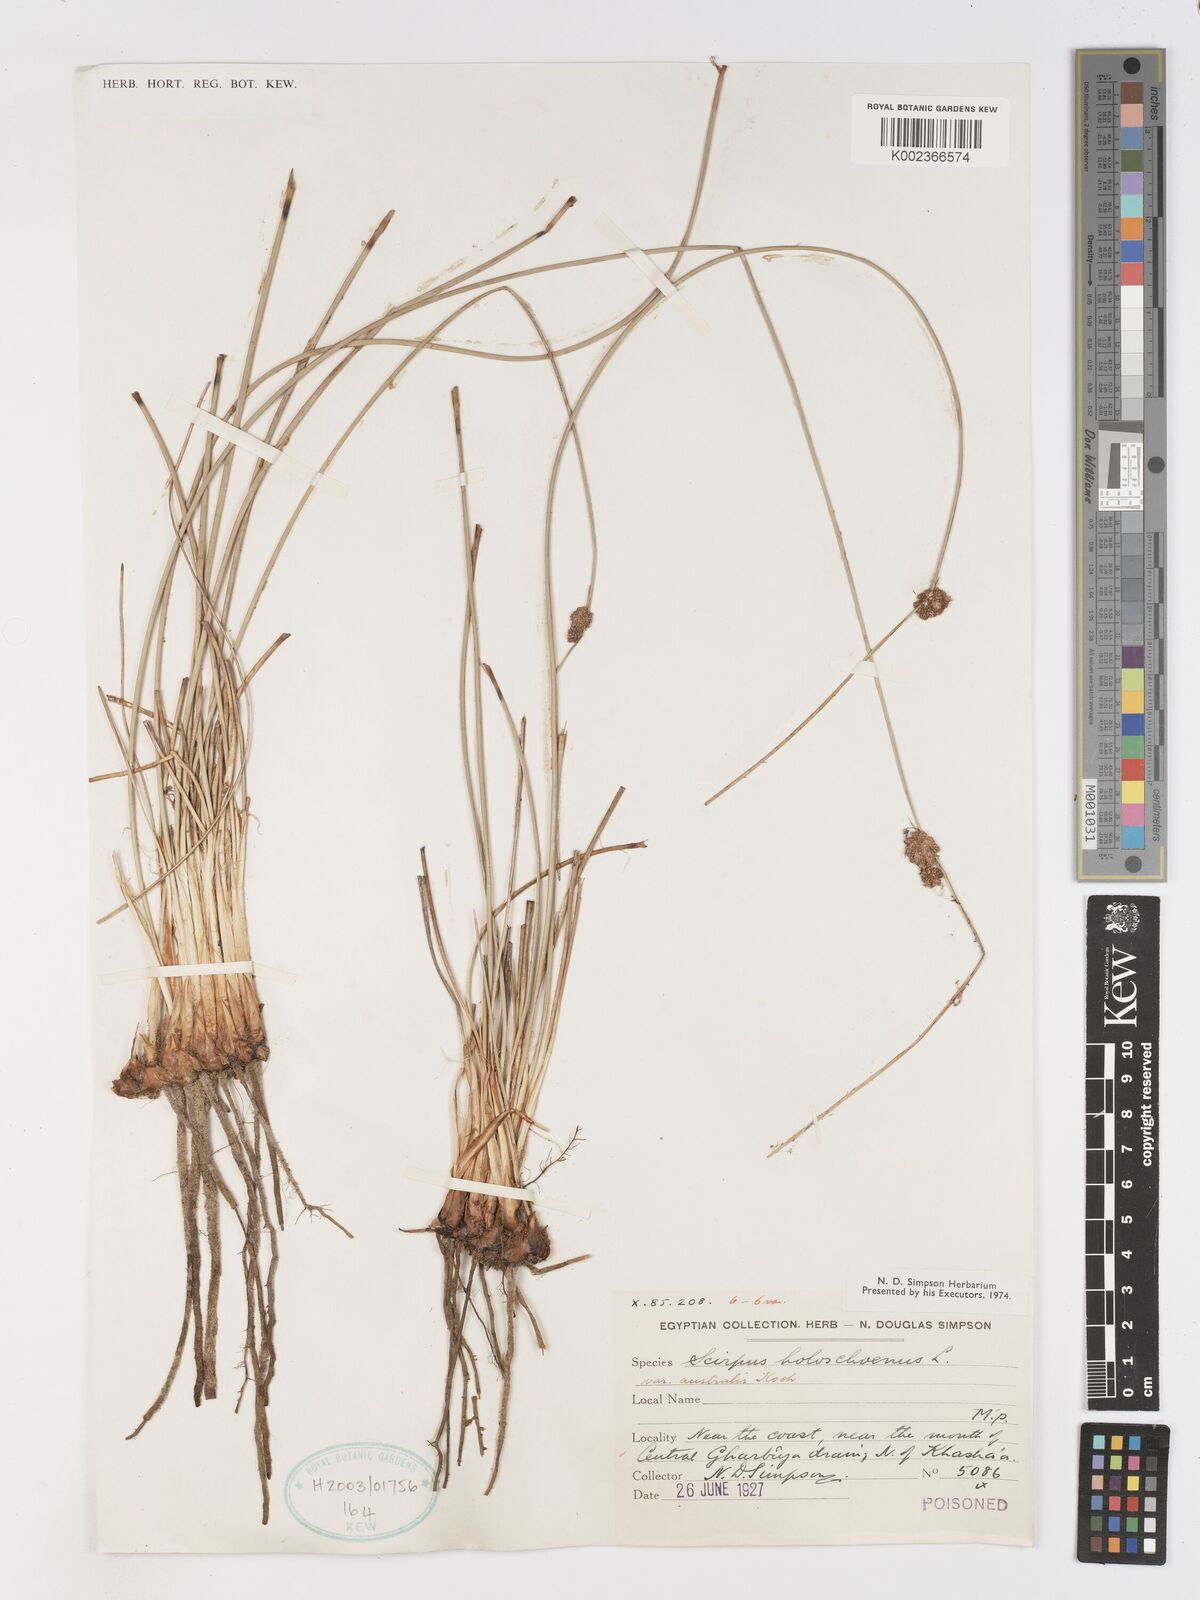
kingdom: Plantae
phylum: Tracheophyta
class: Liliopsida
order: Poales
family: Cyperaceae
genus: Scirpoides
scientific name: Scirpoides holoschoenus
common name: Round-headed club-rush
